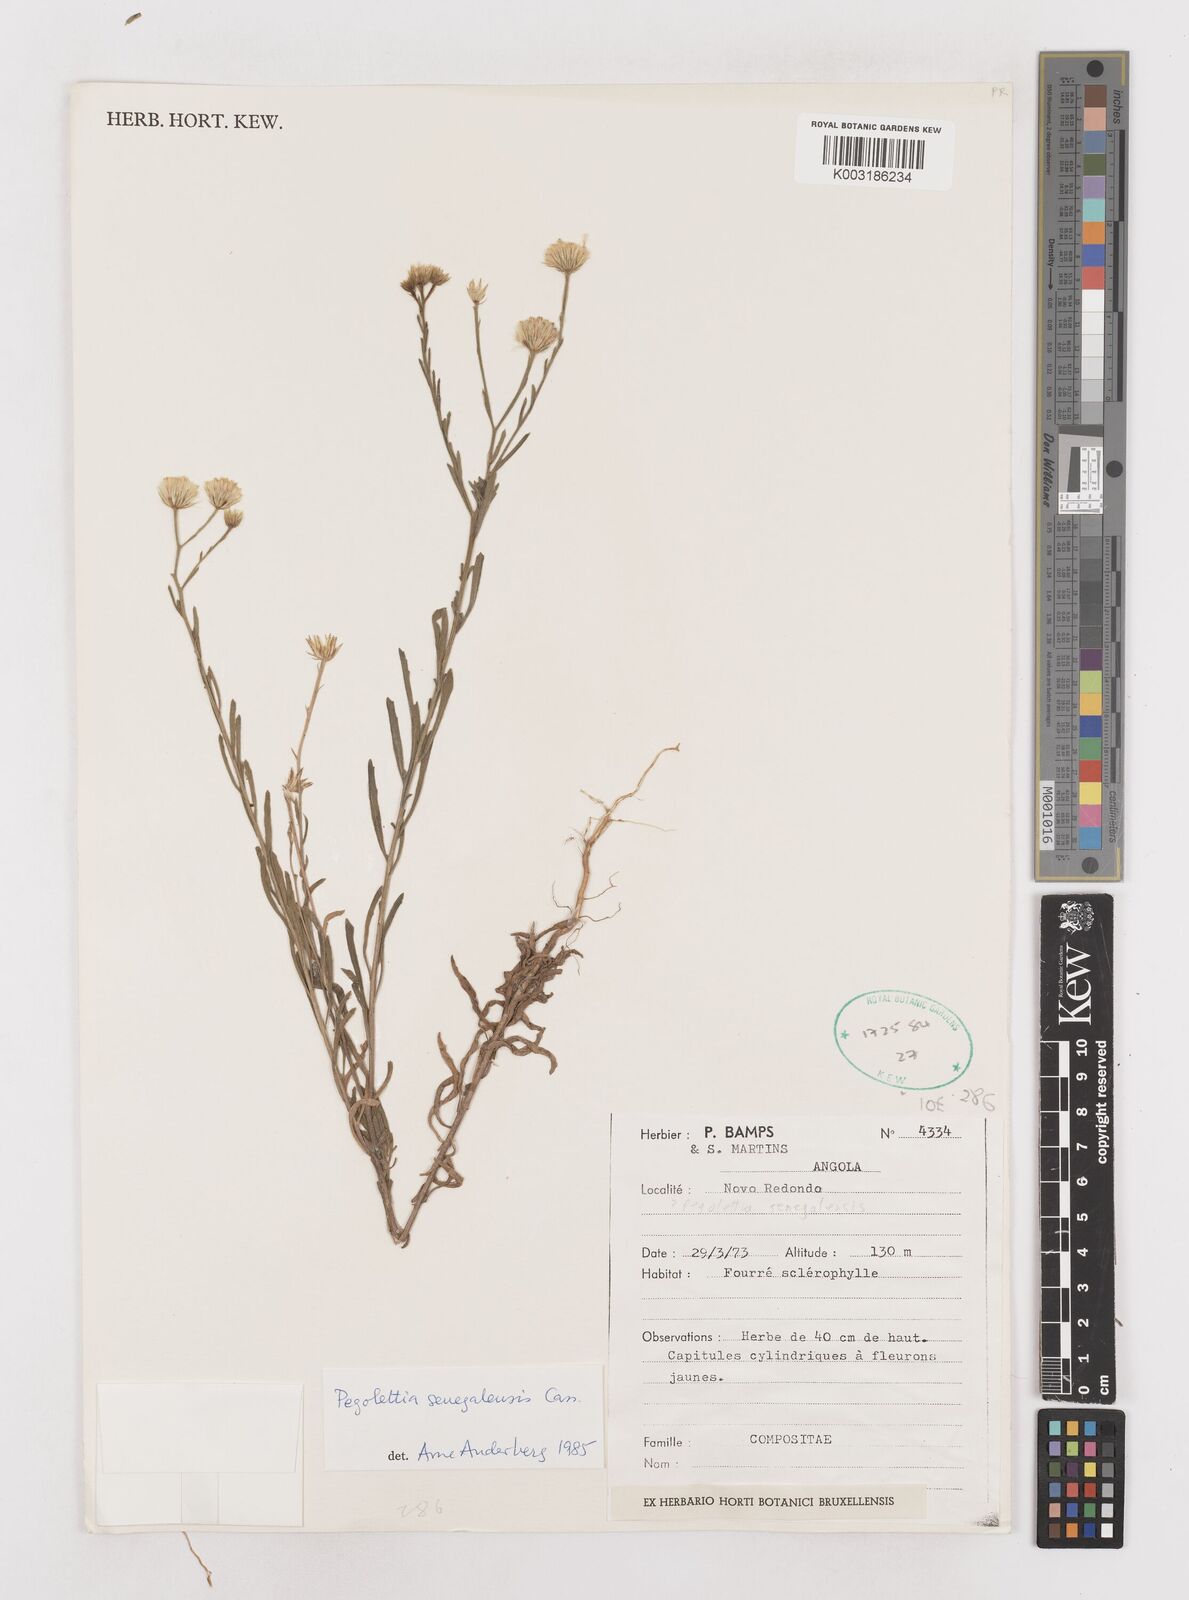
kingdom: Plantae
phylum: Tracheophyta
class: Magnoliopsida
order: Asterales
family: Asteraceae
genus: Pegolettia
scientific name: Pegolettia senegalensis
